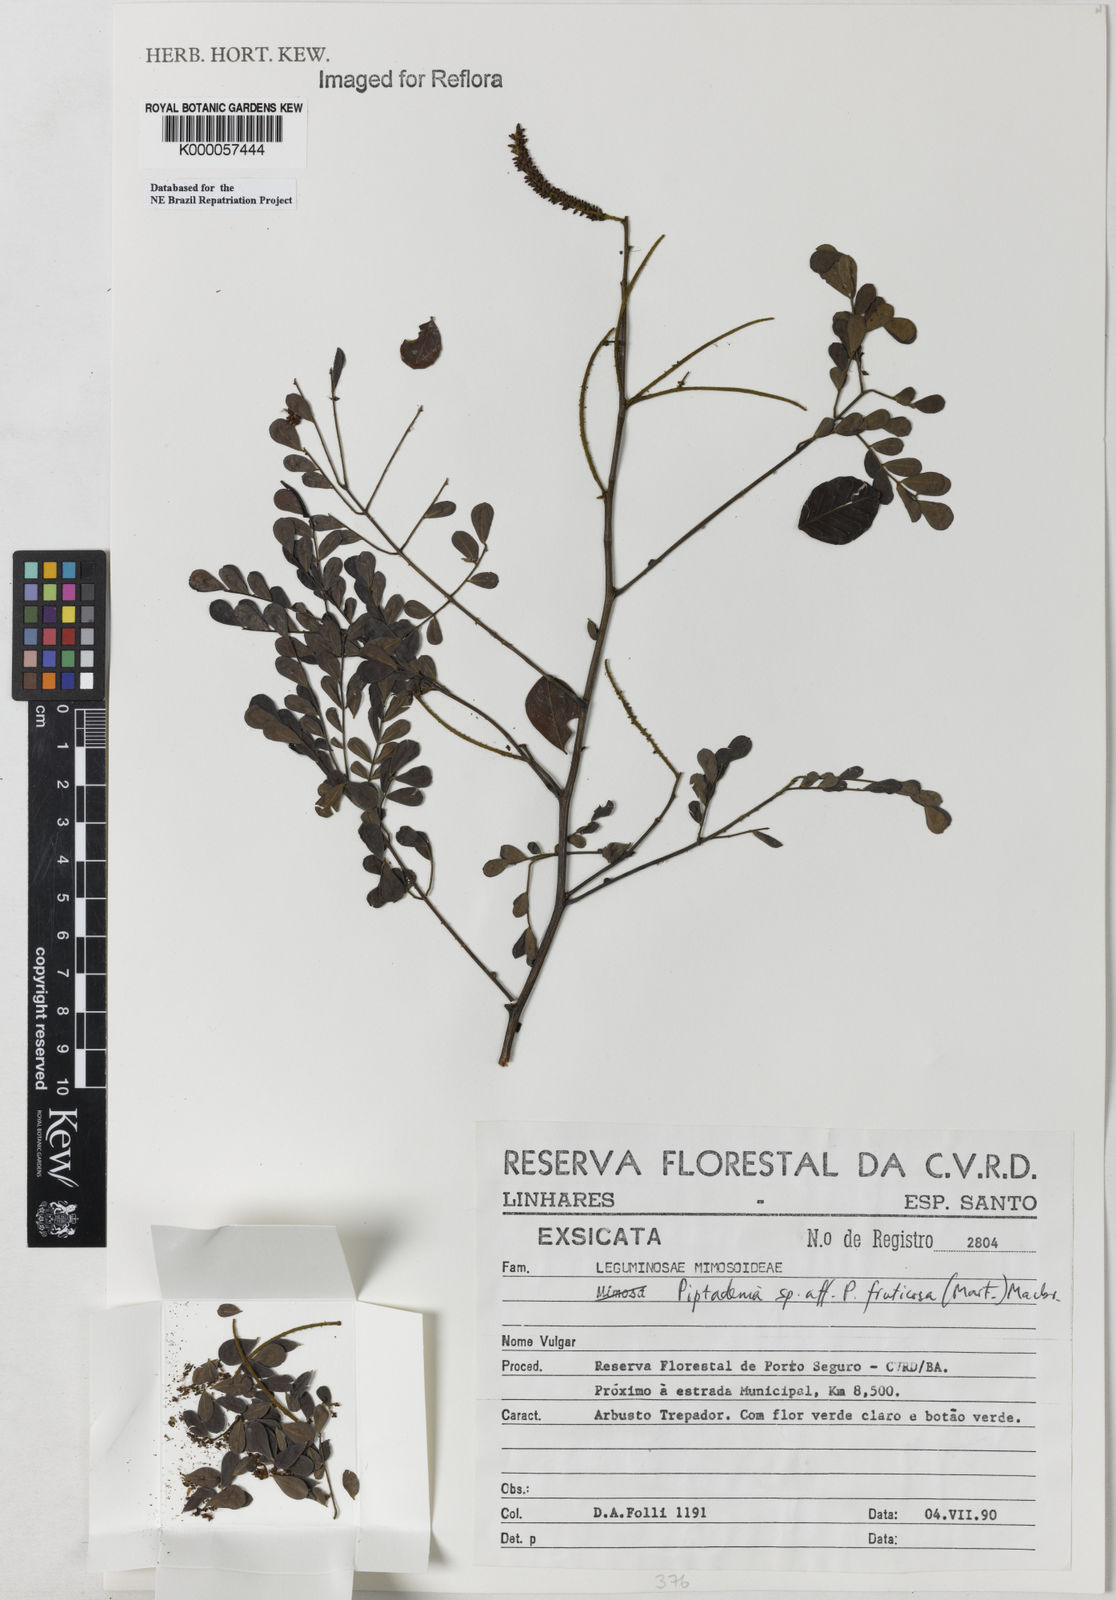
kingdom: Plantae
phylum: Tracheophyta
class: Magnoliopsida
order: Fabales
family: Fabaceae
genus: Piptadenia
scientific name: Piptadenia adiantoides
